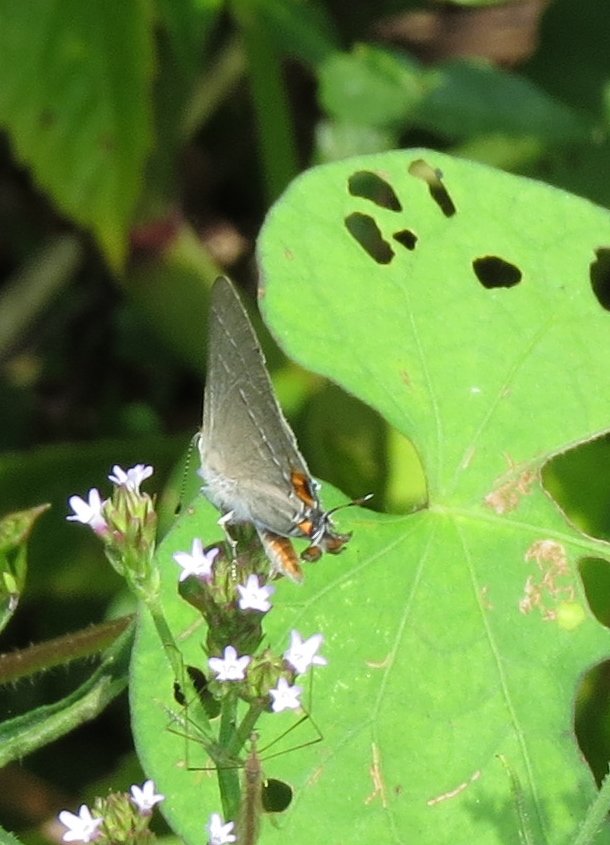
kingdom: Animalia
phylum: Arthropoda
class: Insecta
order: Lepidoptera
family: Lycaenidae
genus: Strymon
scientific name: Strymon melinus
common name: Gray Hairstreak
